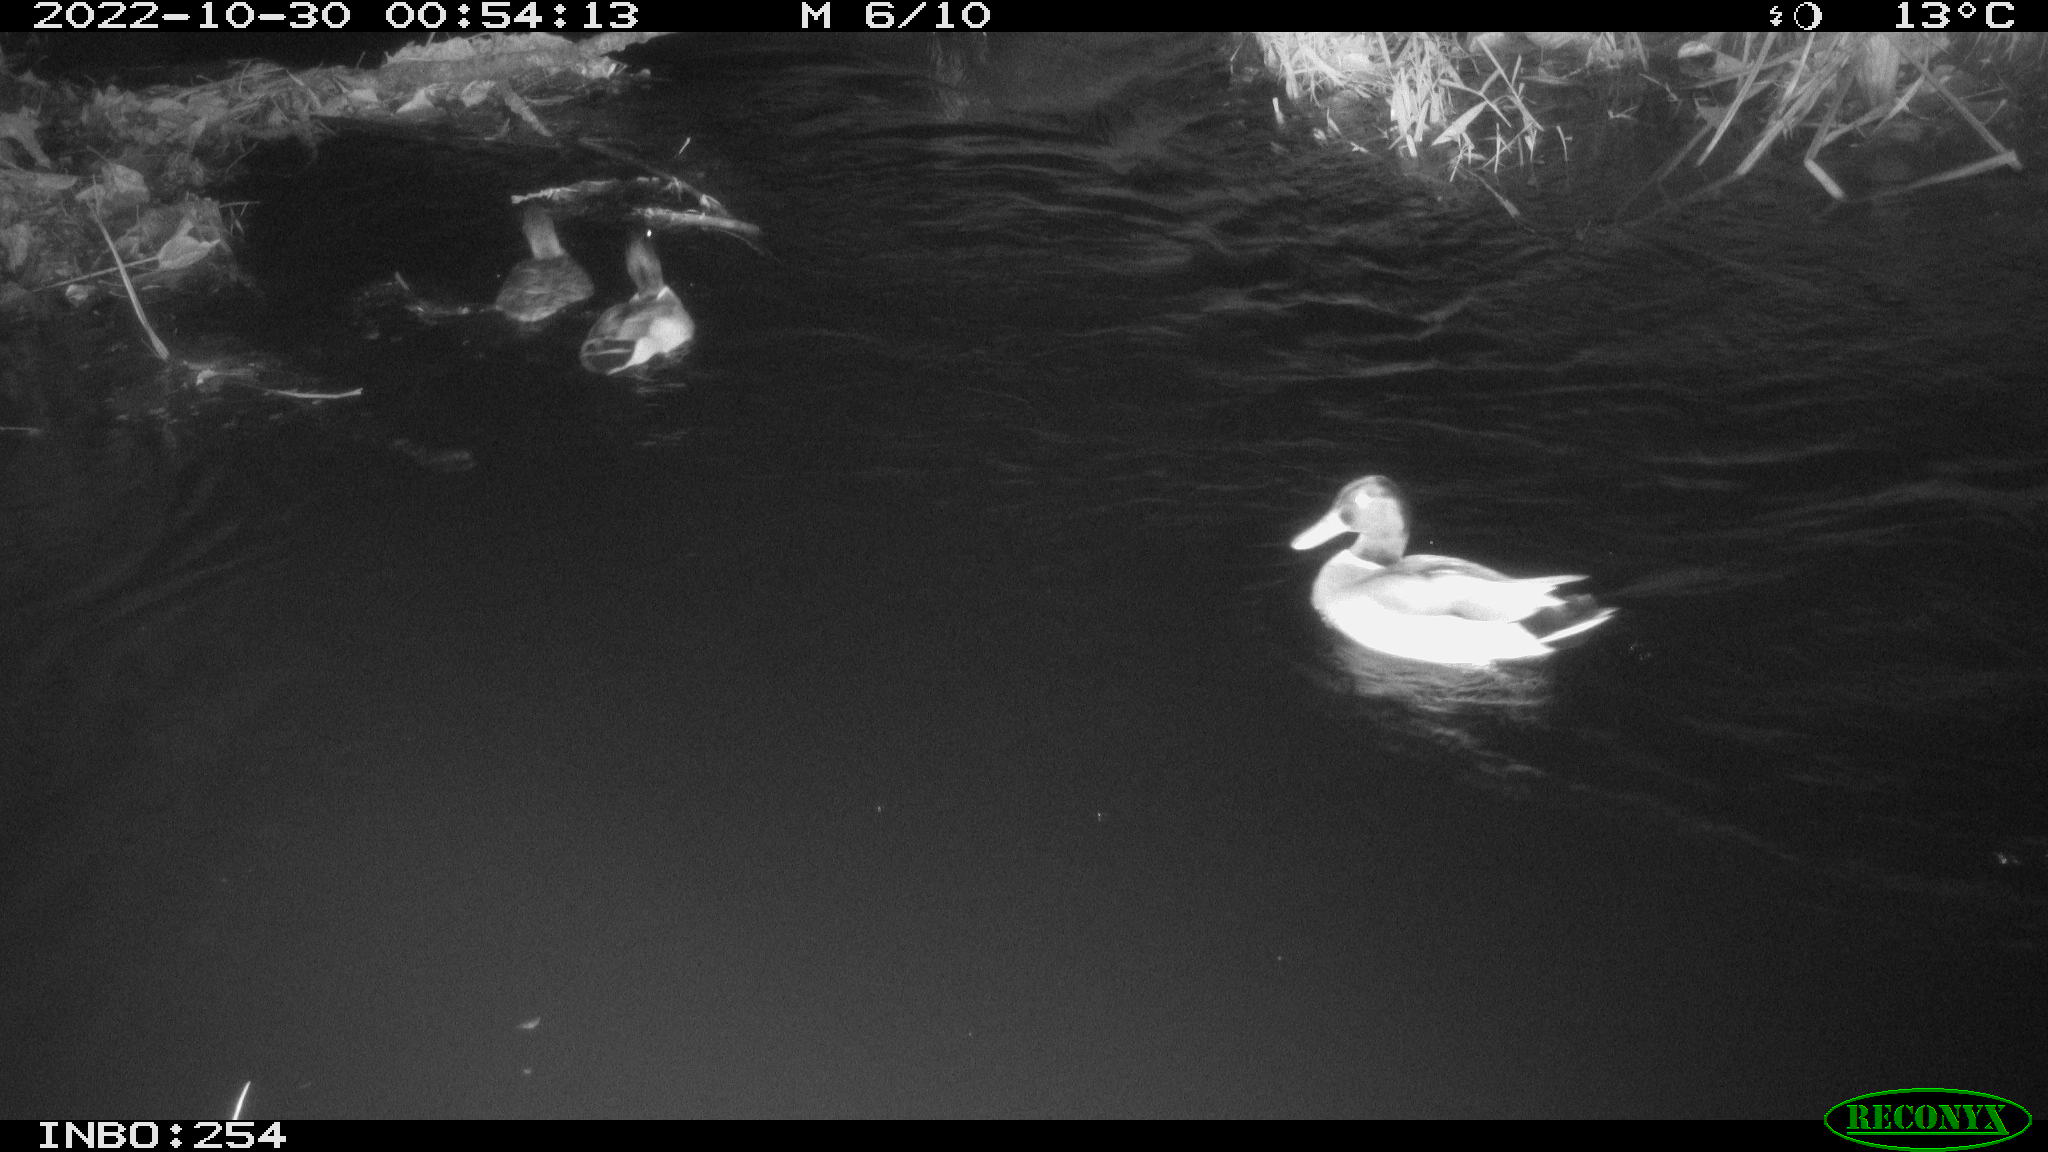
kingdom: Animalia
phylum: Chordata
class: Aves
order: Anseriformes
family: Anatidae
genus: Anas
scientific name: Anas
